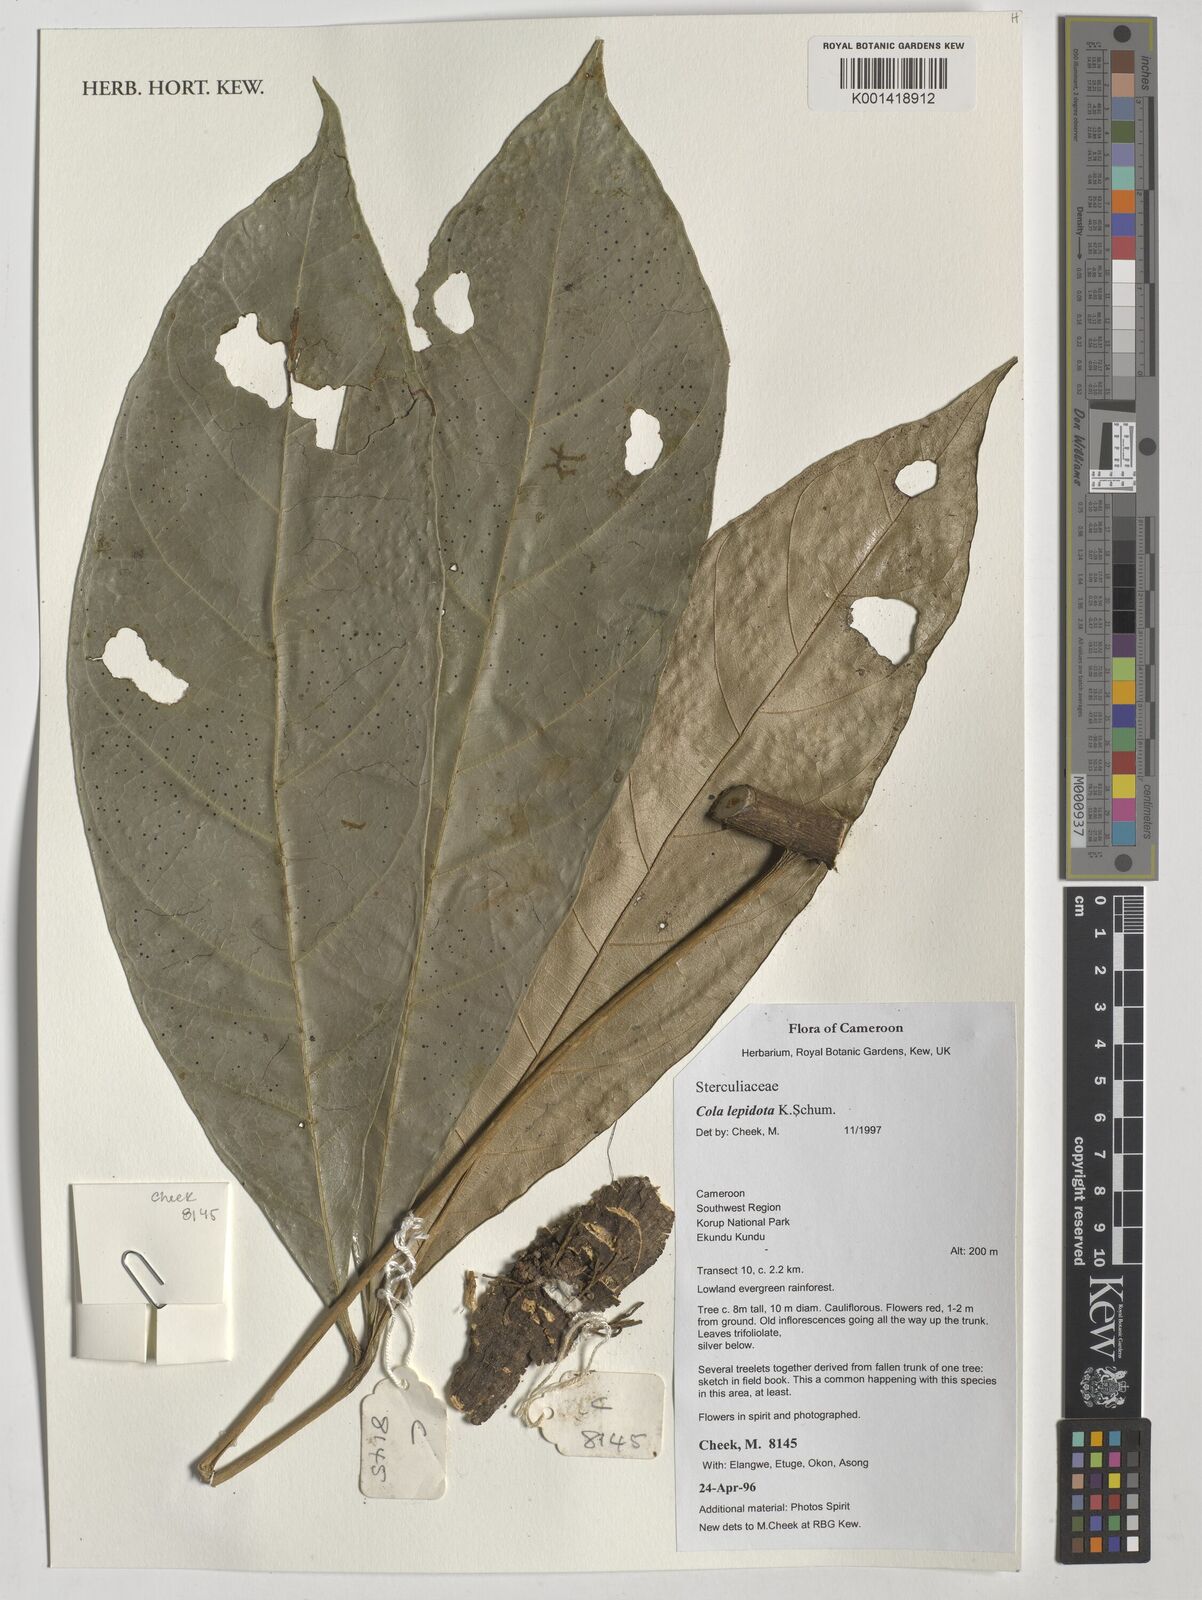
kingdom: Plantae
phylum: Tracheophyta
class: Magnoliopsida
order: Malvales
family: Malvaceae
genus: Cola
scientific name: Cola lepidota
